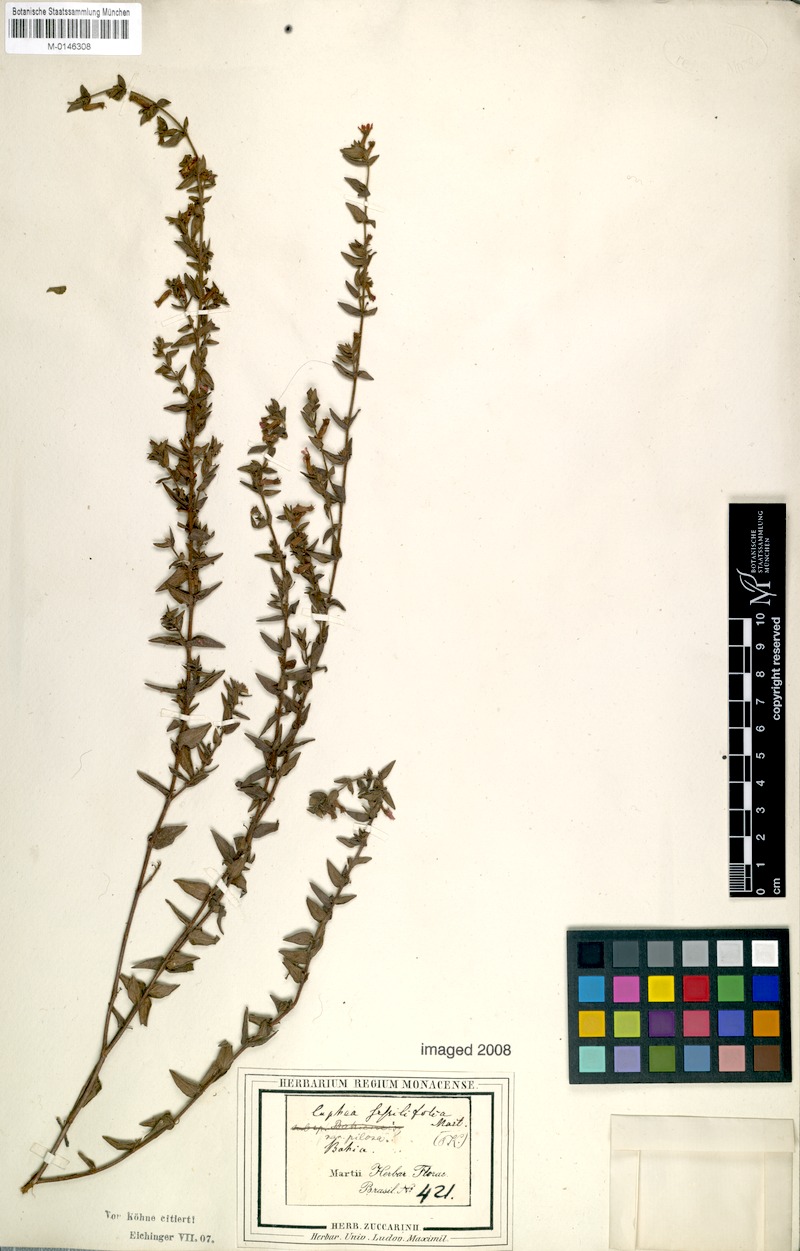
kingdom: Plantae
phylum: Tracheophyta
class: Magnoliopsida
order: Myrtales
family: Lythraceae
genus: Cuphea
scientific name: Cuphea sessilifolia
